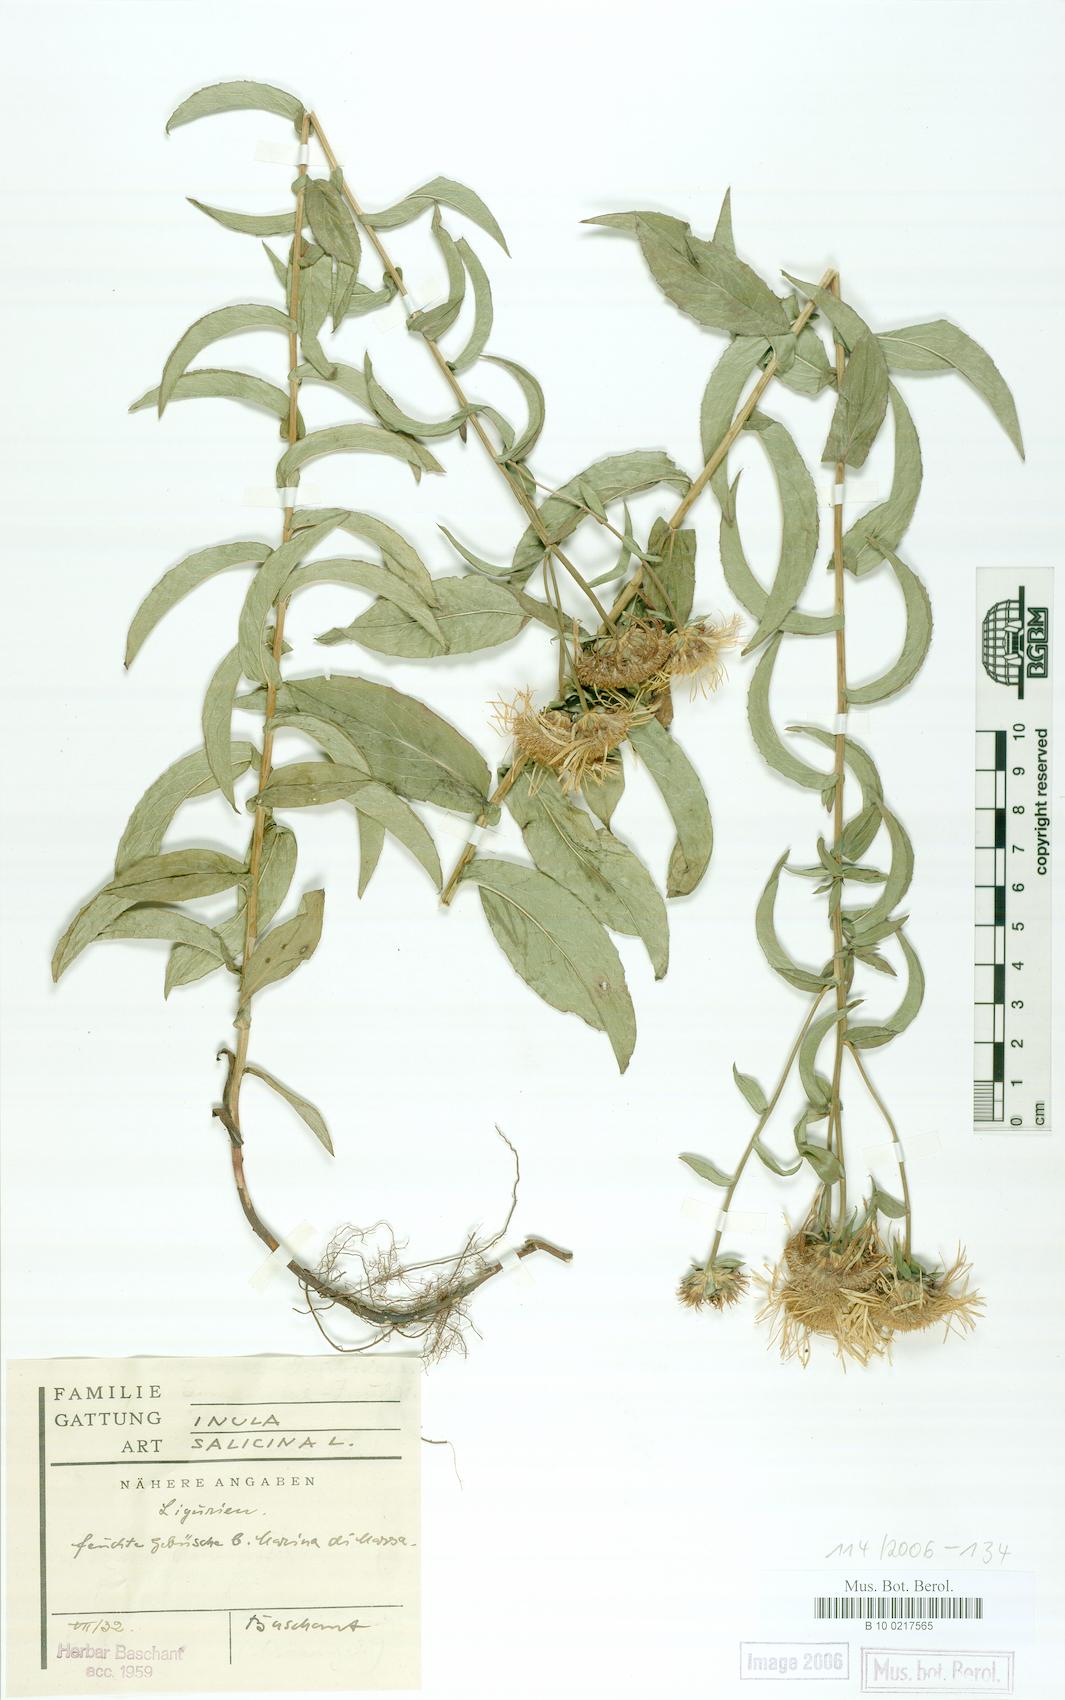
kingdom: Plantae
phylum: Tracheophyta
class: Magnoliopsida
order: Asterales
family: Asteraceae
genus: Pentanema
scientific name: Pentanema salicinum
